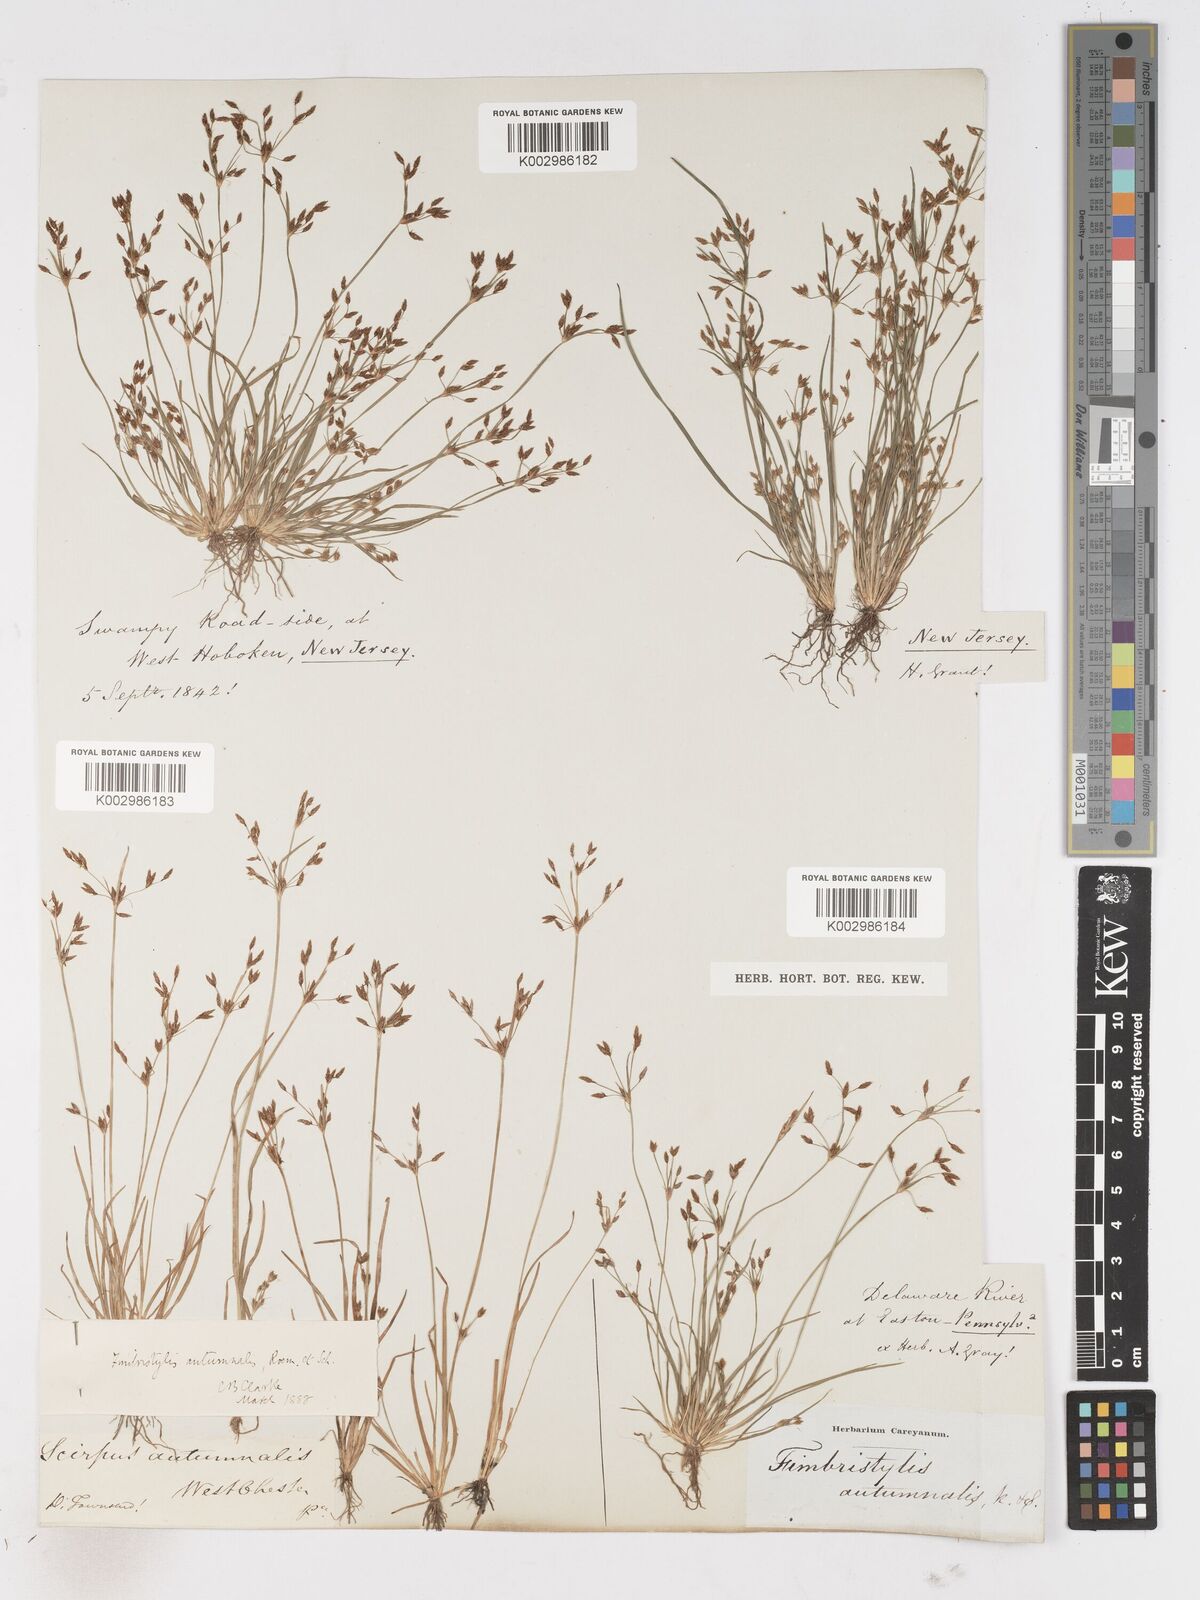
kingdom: Plantae
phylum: Tracheophyta
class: Liliopsida
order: Poales
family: Cyperaceae
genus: Fimbristylis
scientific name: Fimbristylis autumnalis
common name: Slender fimbristylis
